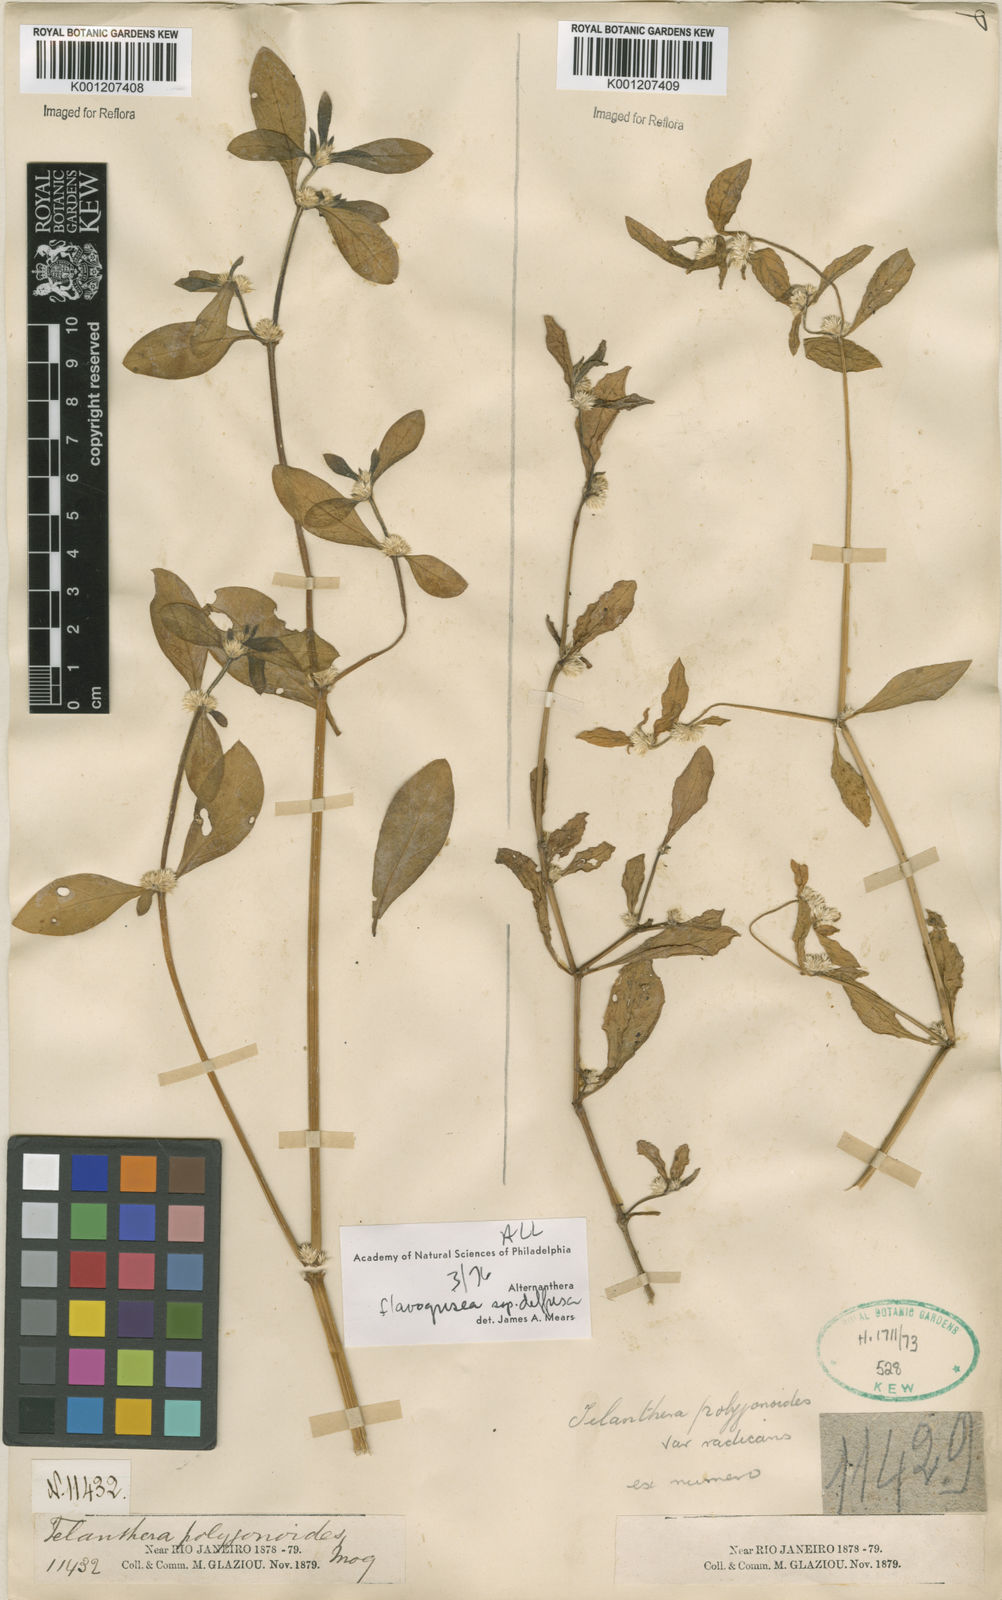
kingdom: Plantae
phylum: Tracheophyta
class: Magnoliopsida
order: Caryophyllales
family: Amaranthaceae
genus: Alternanthera
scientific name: Alternanthera halimifolia
